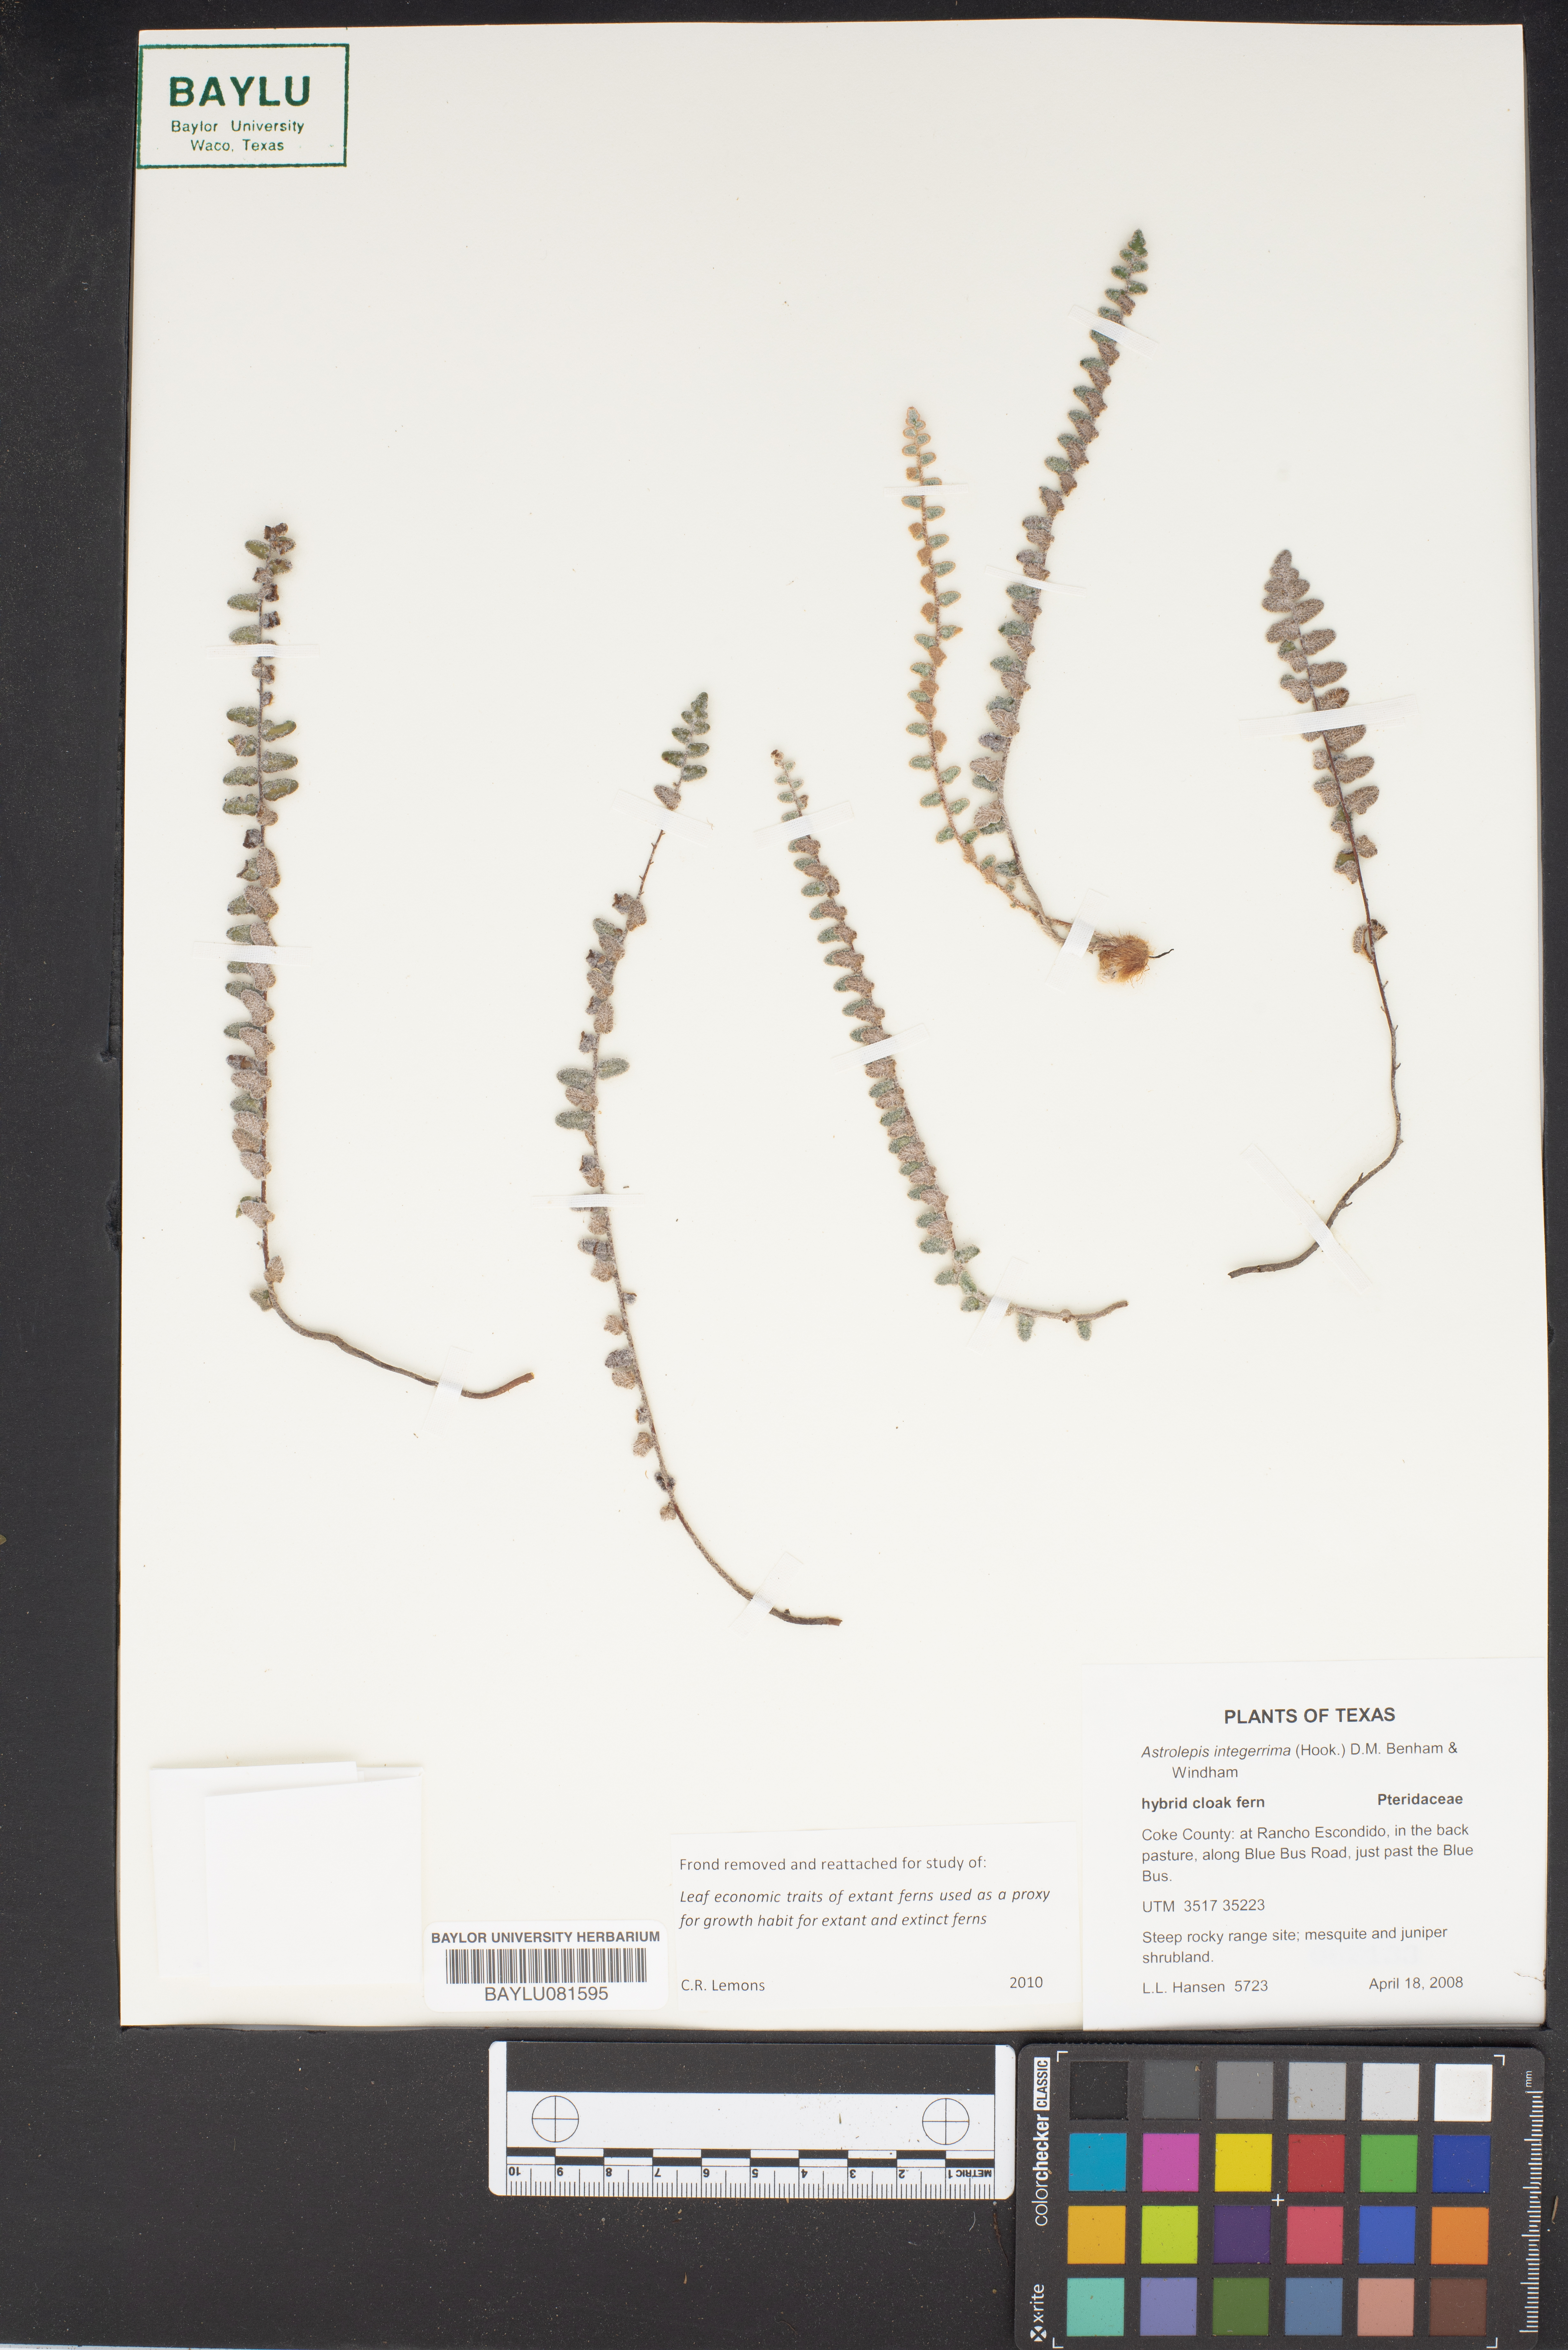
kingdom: Plantae
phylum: Tracheophyta
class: Polypodiopsida
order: Polypodiales
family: Pteridaceae
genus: Astrolepis
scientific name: Astrolepis integerrima
